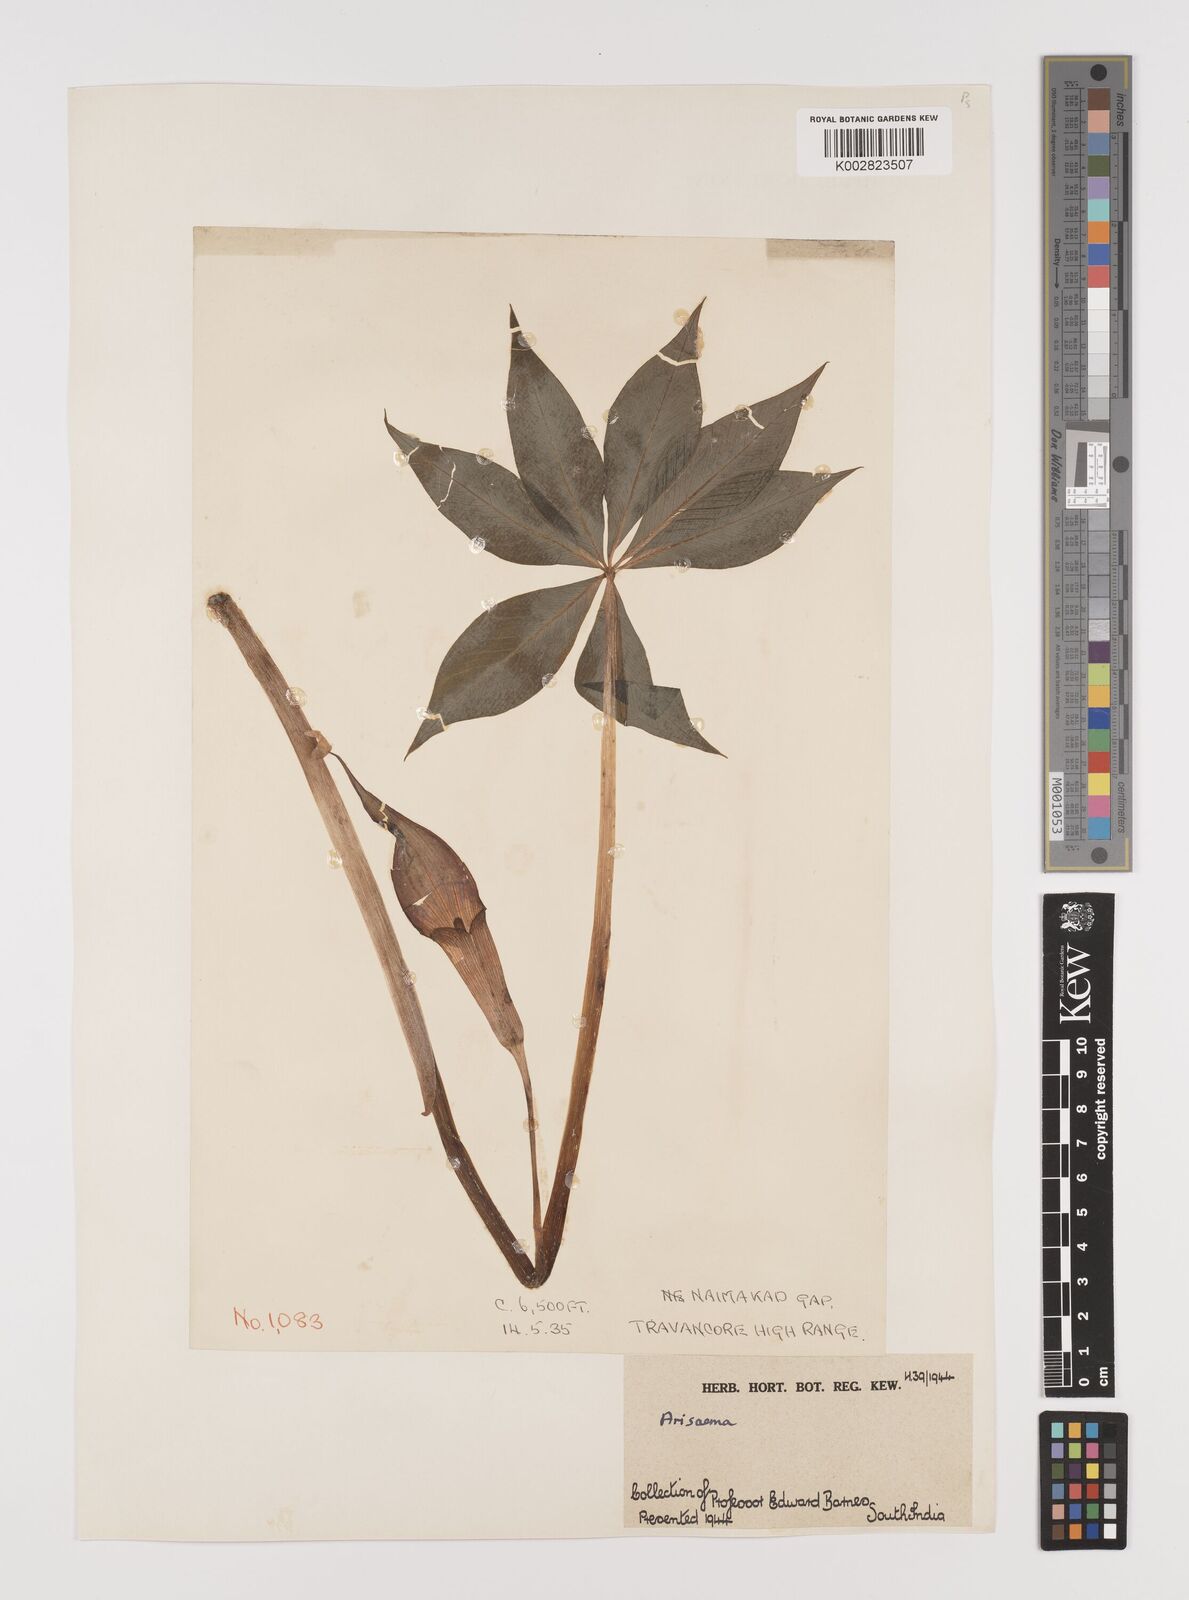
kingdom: Plantae
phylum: Tracheophyta
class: Liliopsida
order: Alismatales
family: Araceae
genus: Arisaema
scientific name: Arisaema
